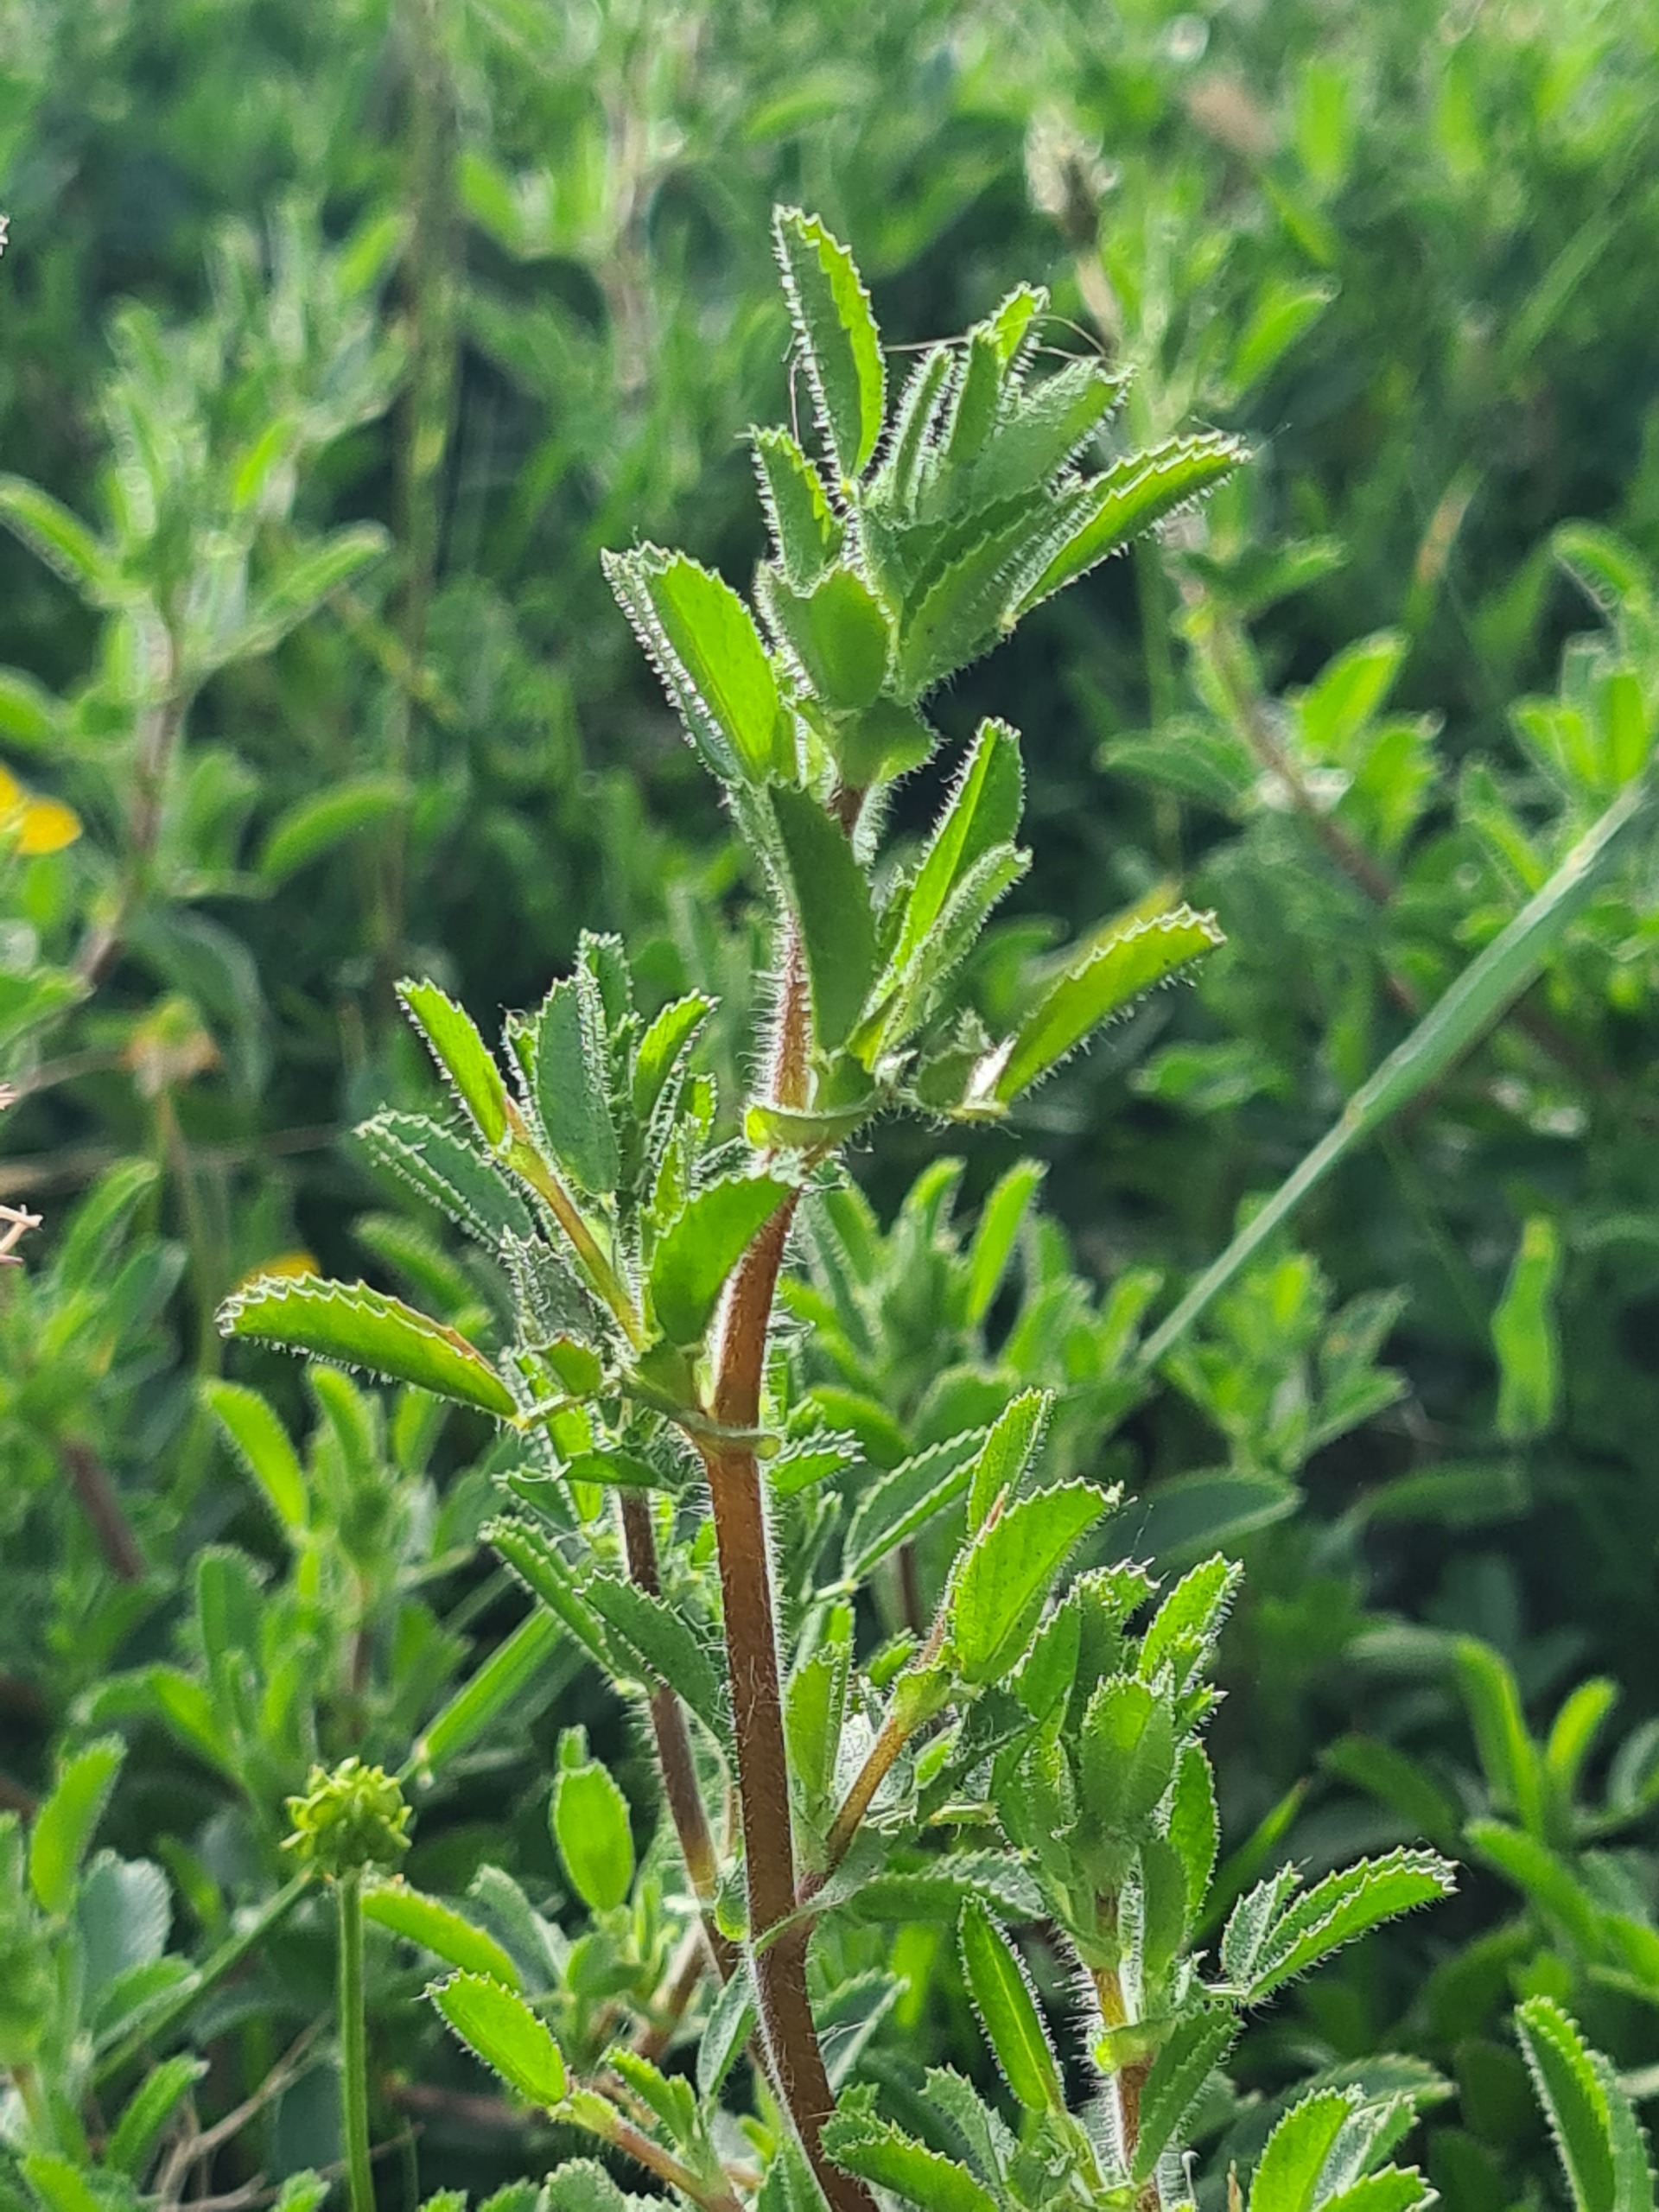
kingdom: Plantae
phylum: Tracheophyta
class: Magnoliopsida
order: Fabales
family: Fabaceae
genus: Ononis
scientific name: Ononis spinosa
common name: Krageklo
